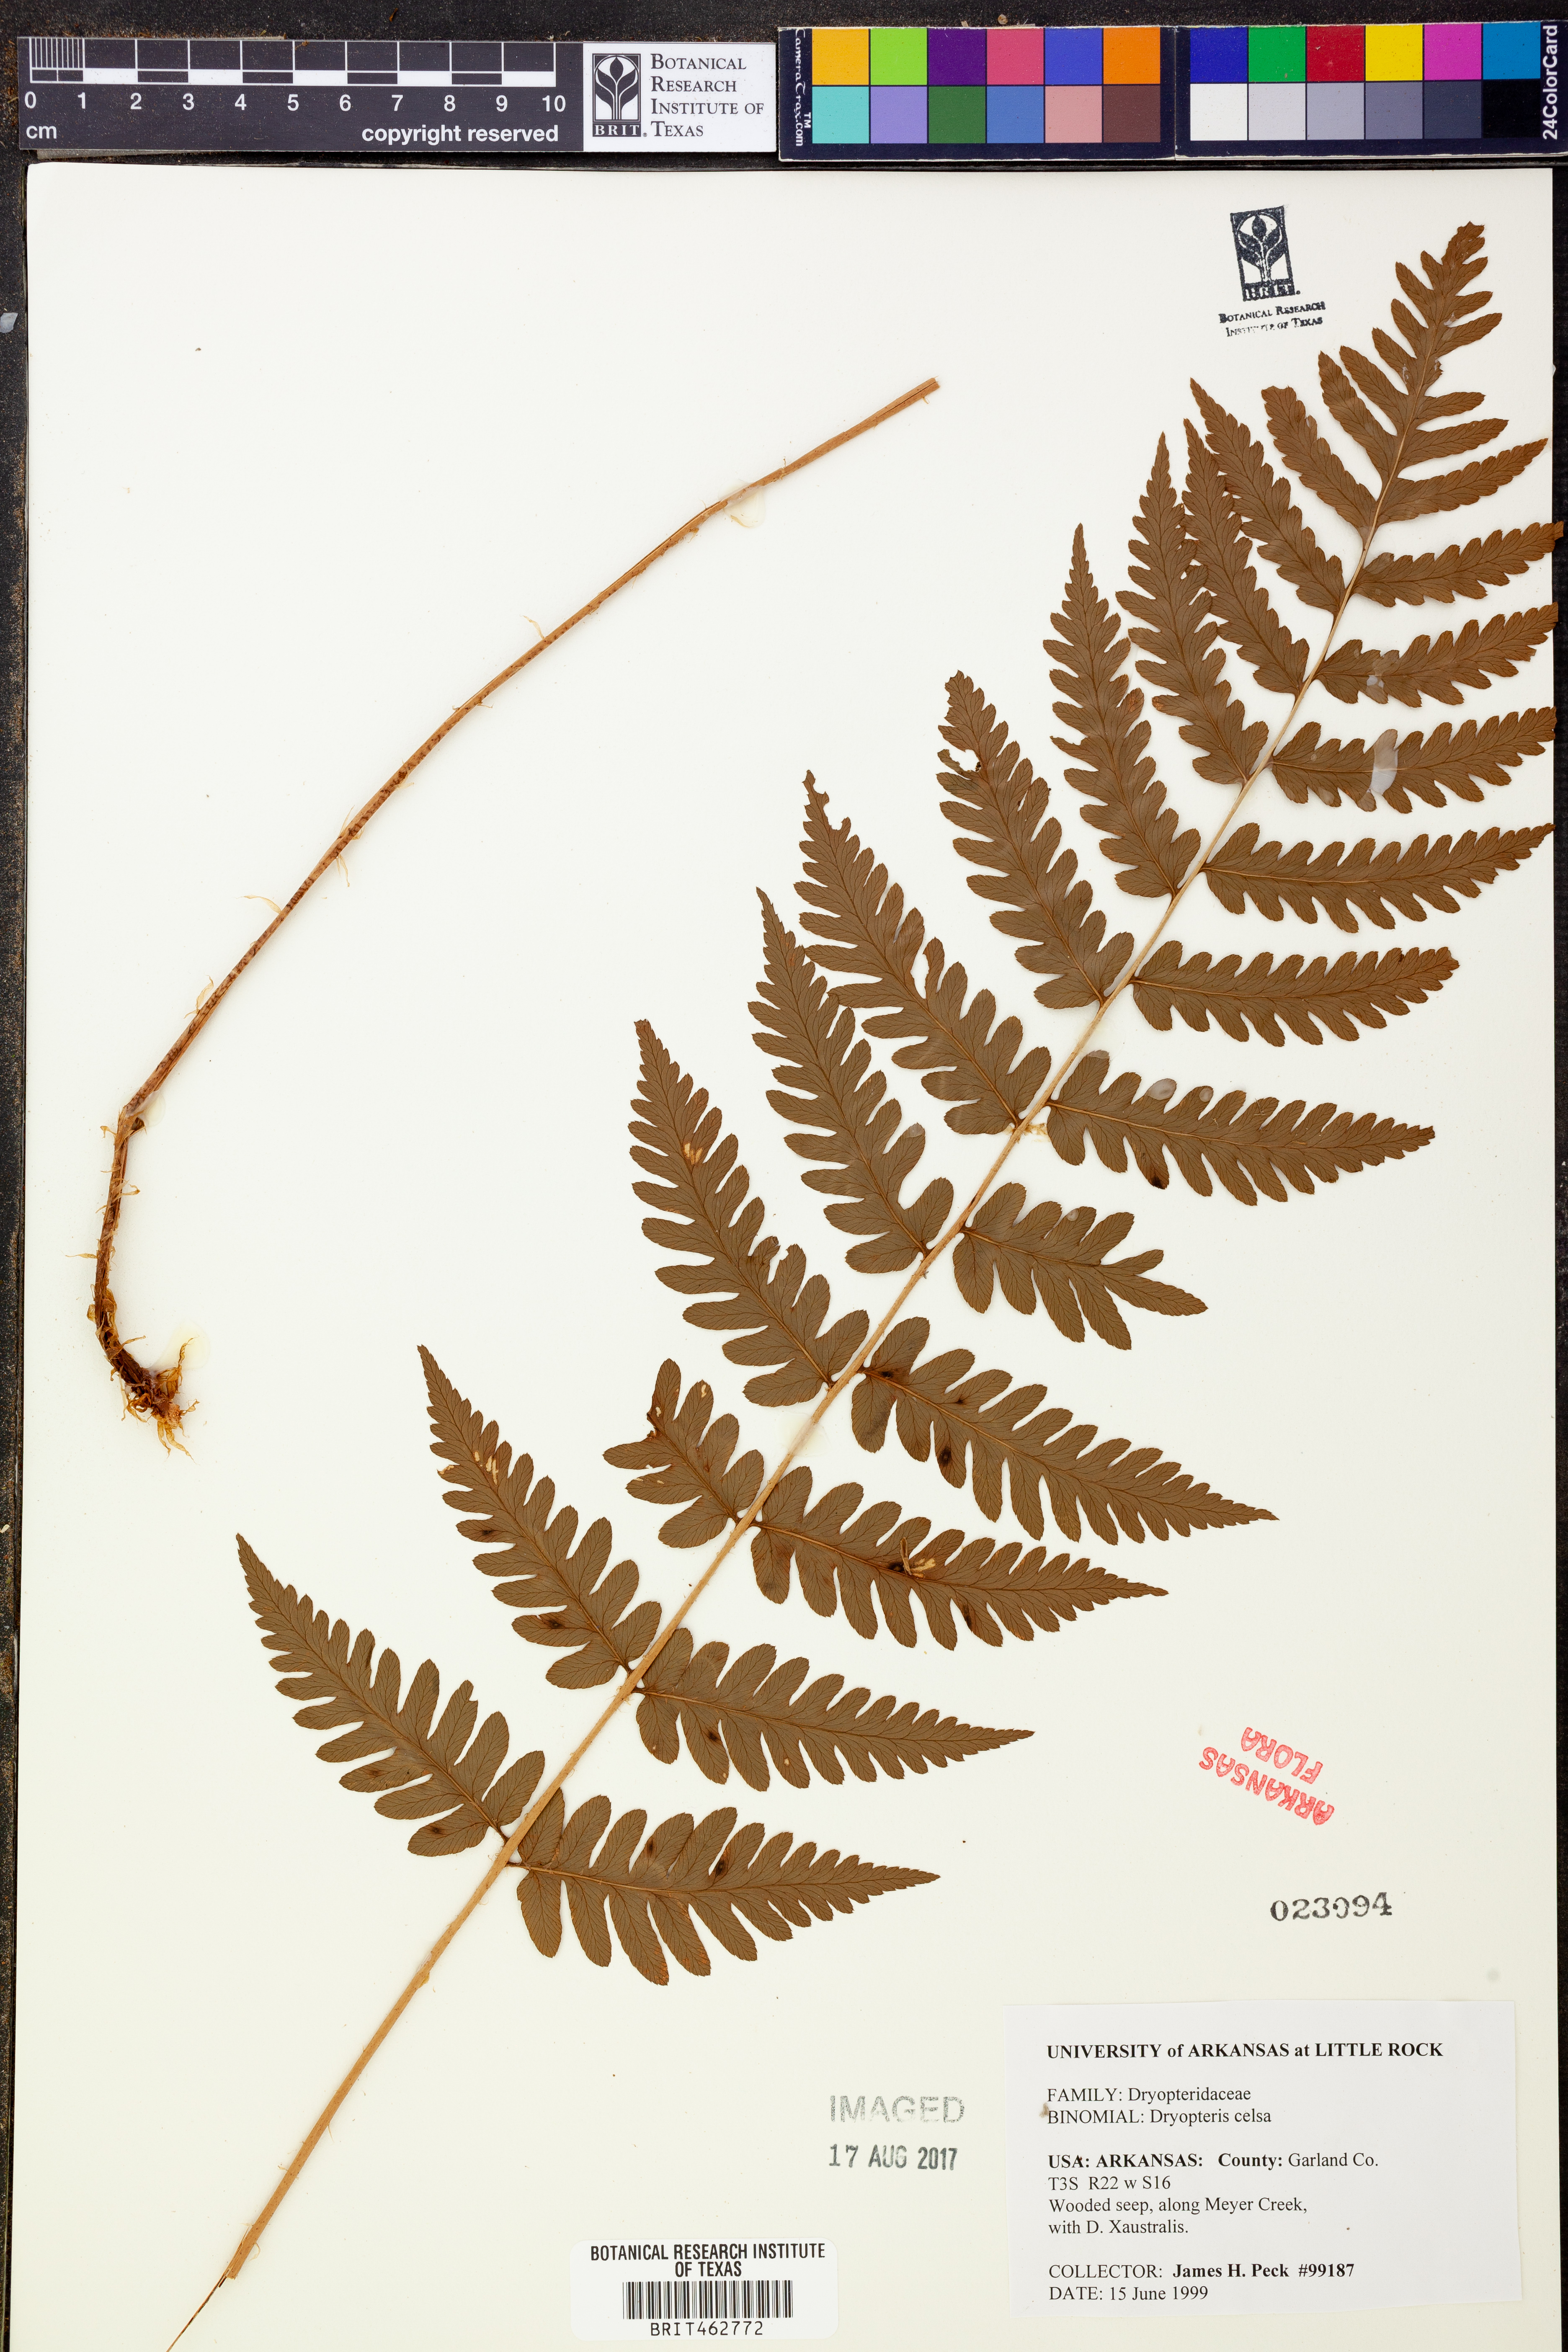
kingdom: Plantae
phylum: Tracheophyta
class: Polypodiopsida
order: Polypodiales
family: Dryopteridaceae
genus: Dryopteris
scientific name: Dryopteris celsa
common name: Log fern
